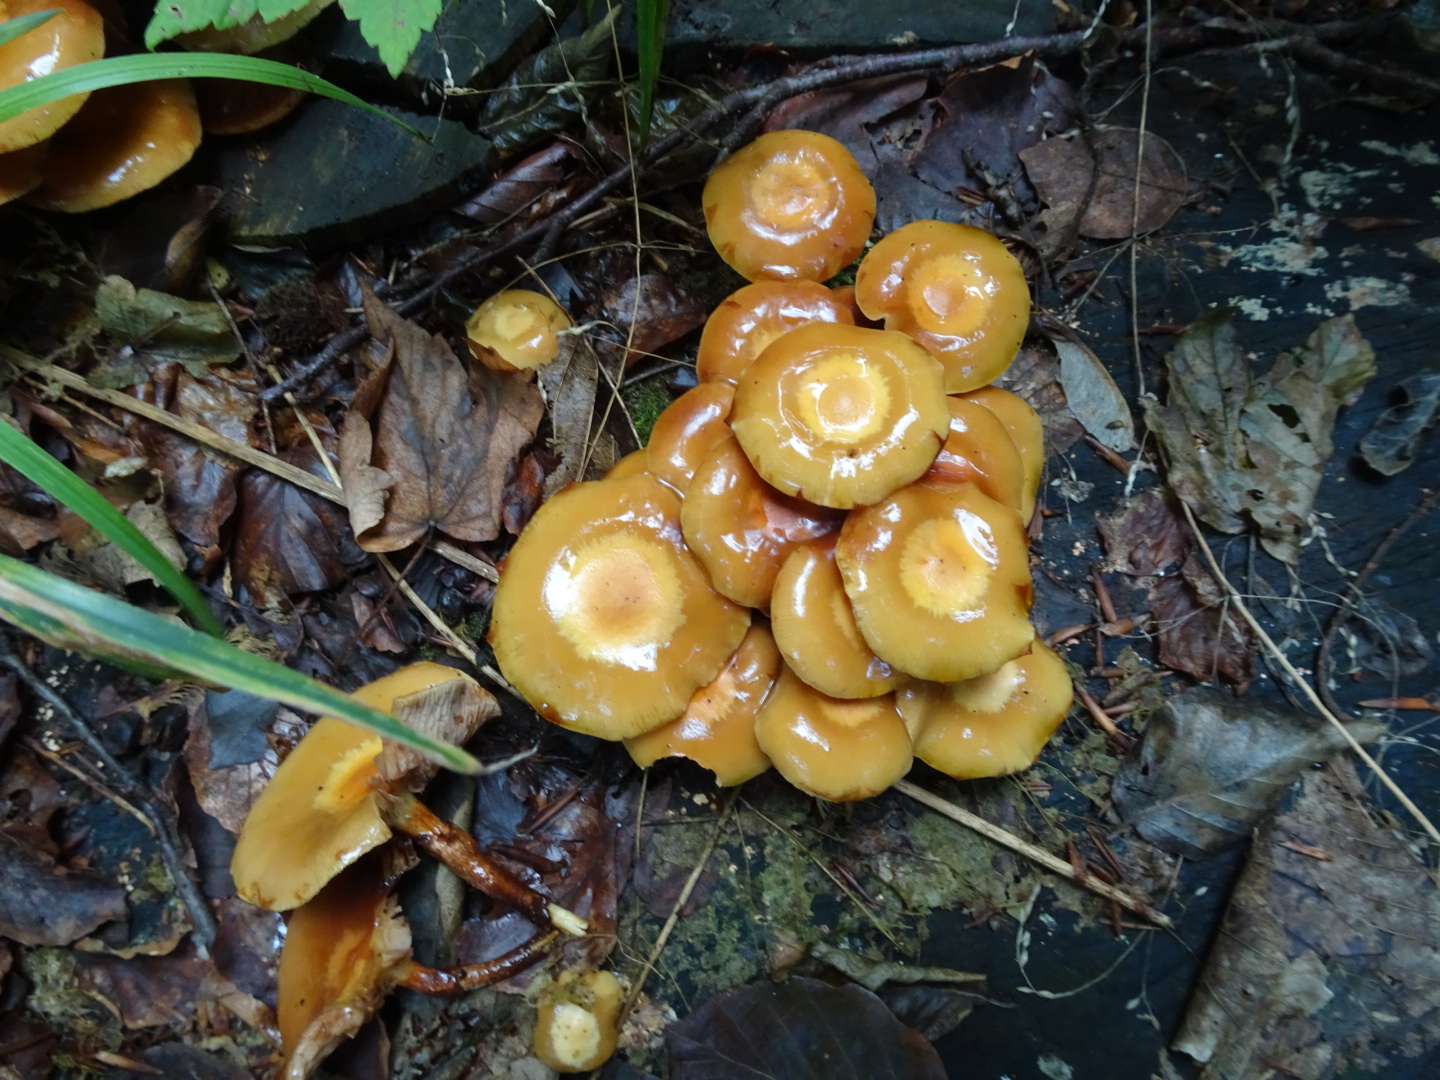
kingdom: Fungi
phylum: Basidiomycota
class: Agaricomycetes
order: Agaricales
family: Strophariaceae
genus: Kuehneromyces
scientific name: Kuehneromyces mutabilis
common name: foranderlig skælhat
